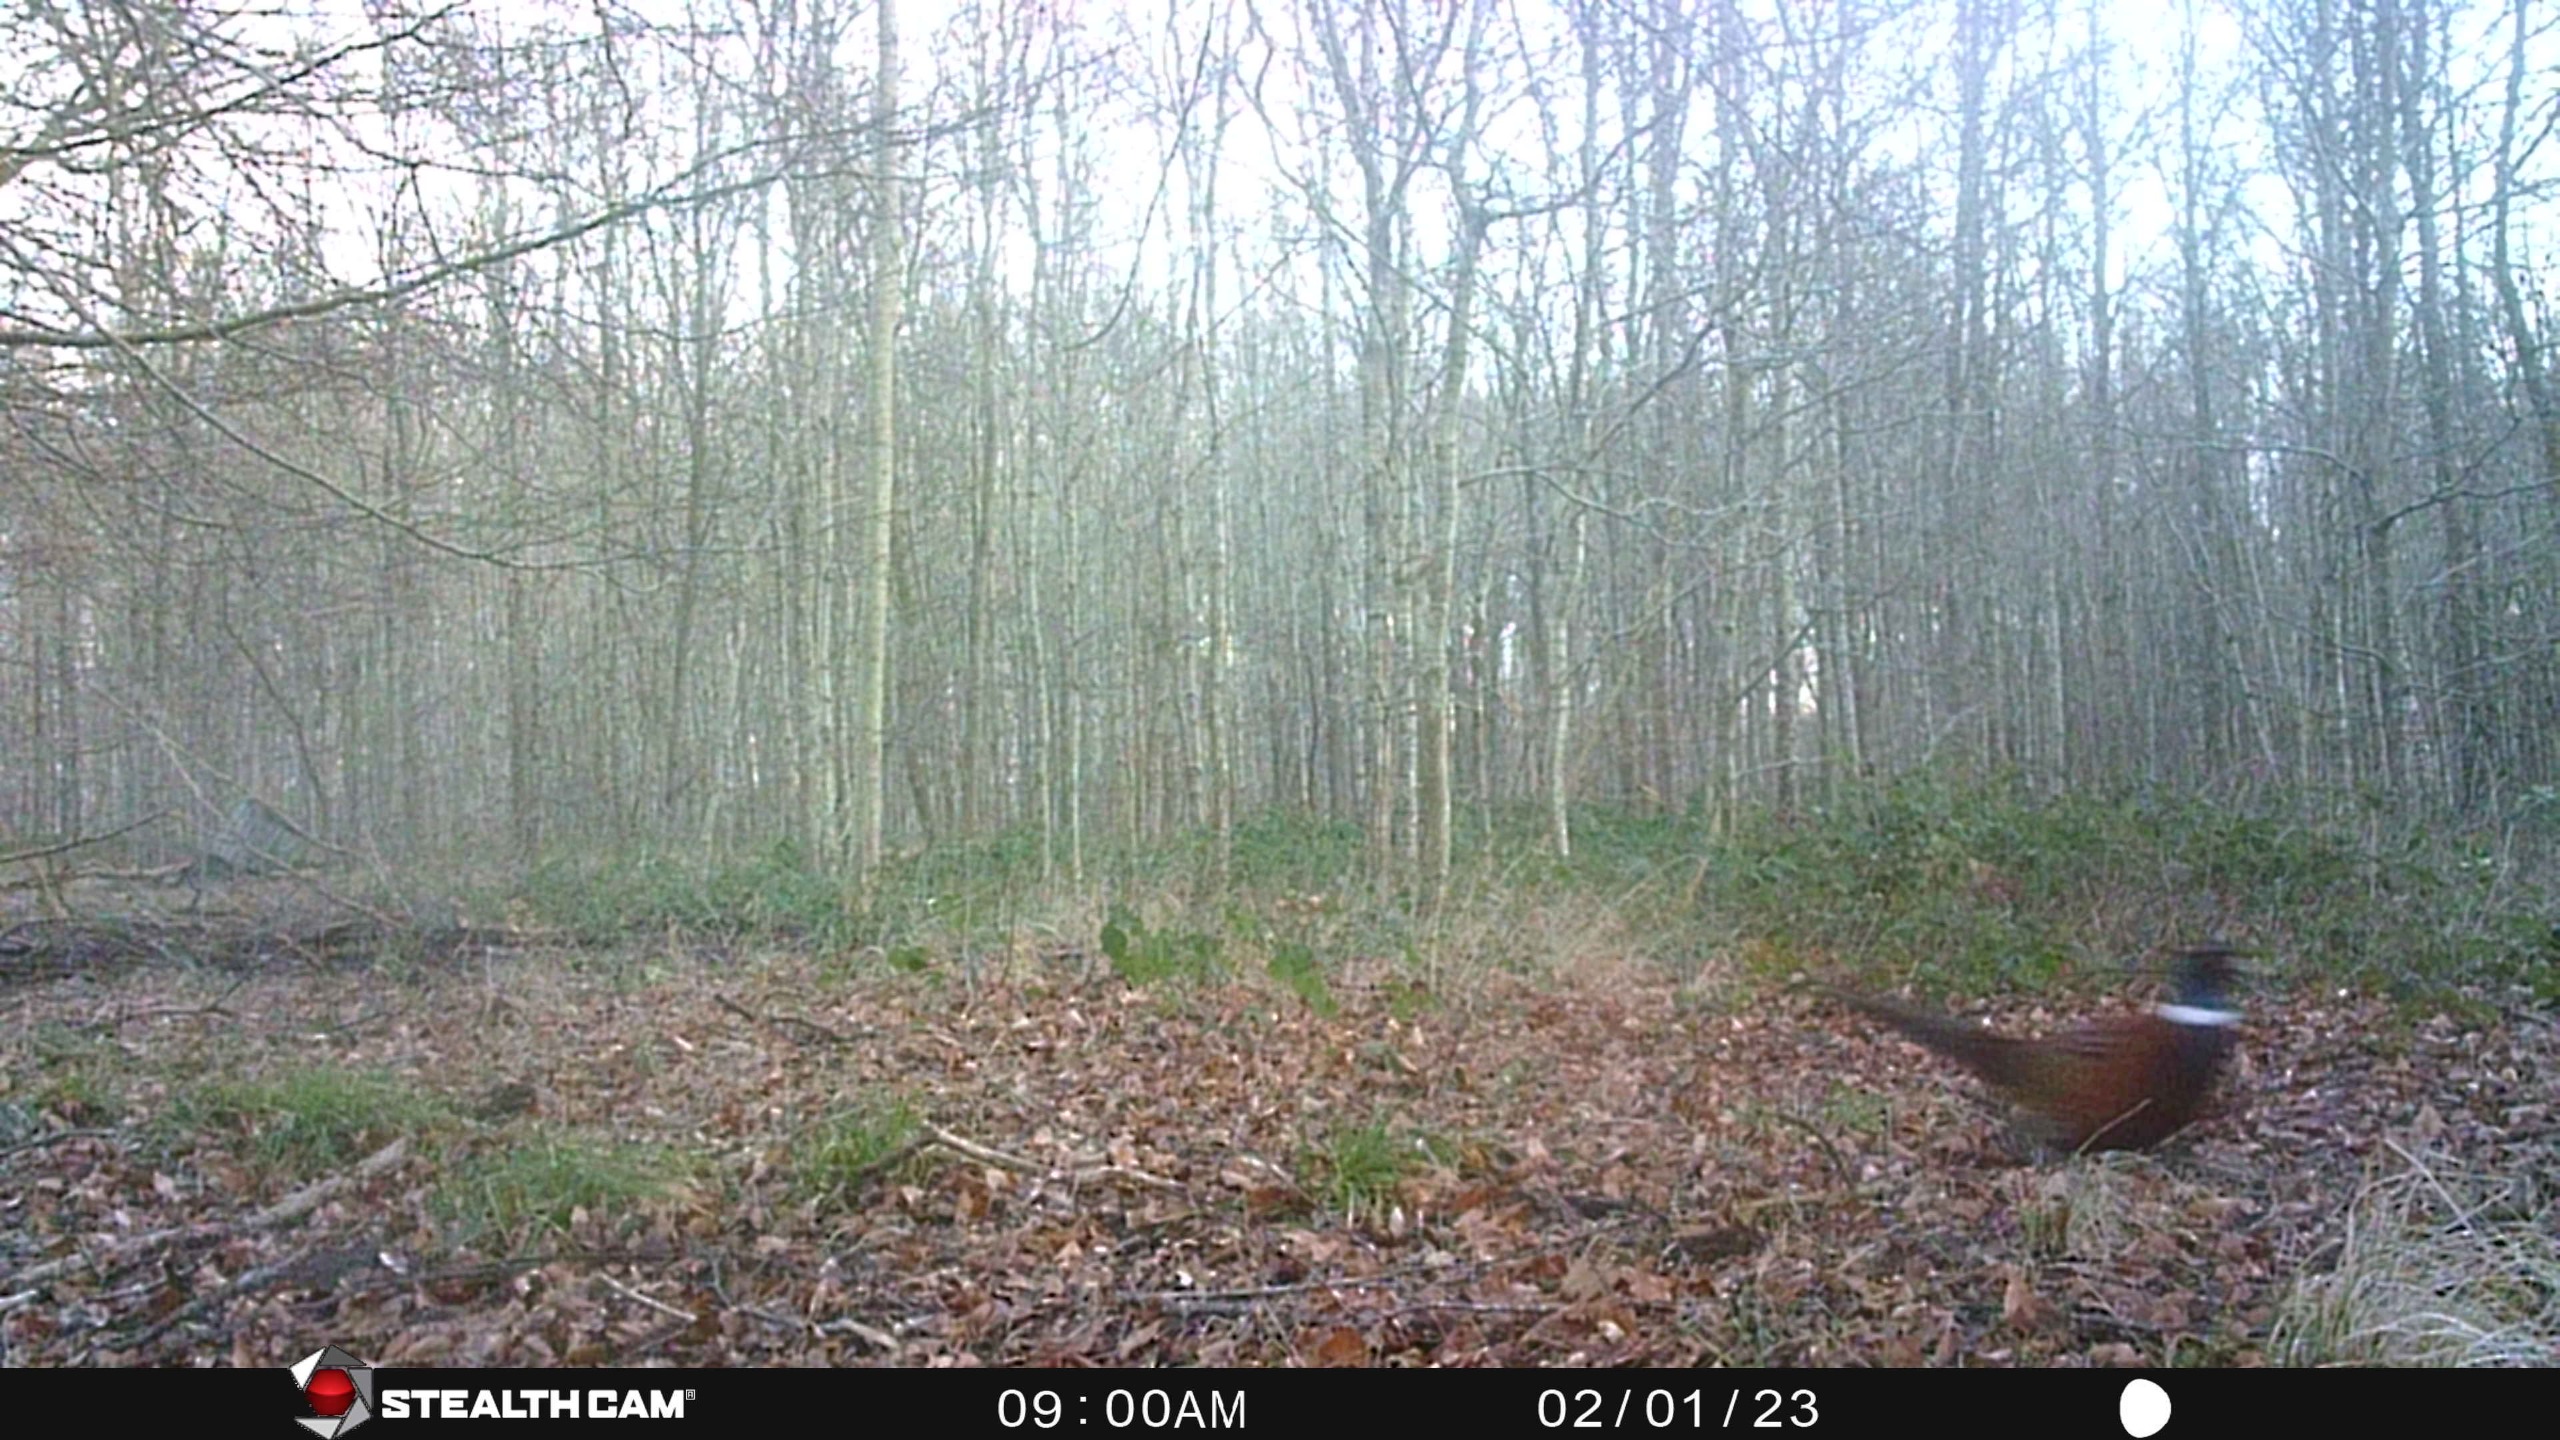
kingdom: Animalia
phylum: Chordata
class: Aves
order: Galliformes
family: Phasianidae
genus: Phasianus
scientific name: Phasianus colchicus
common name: Fasan
